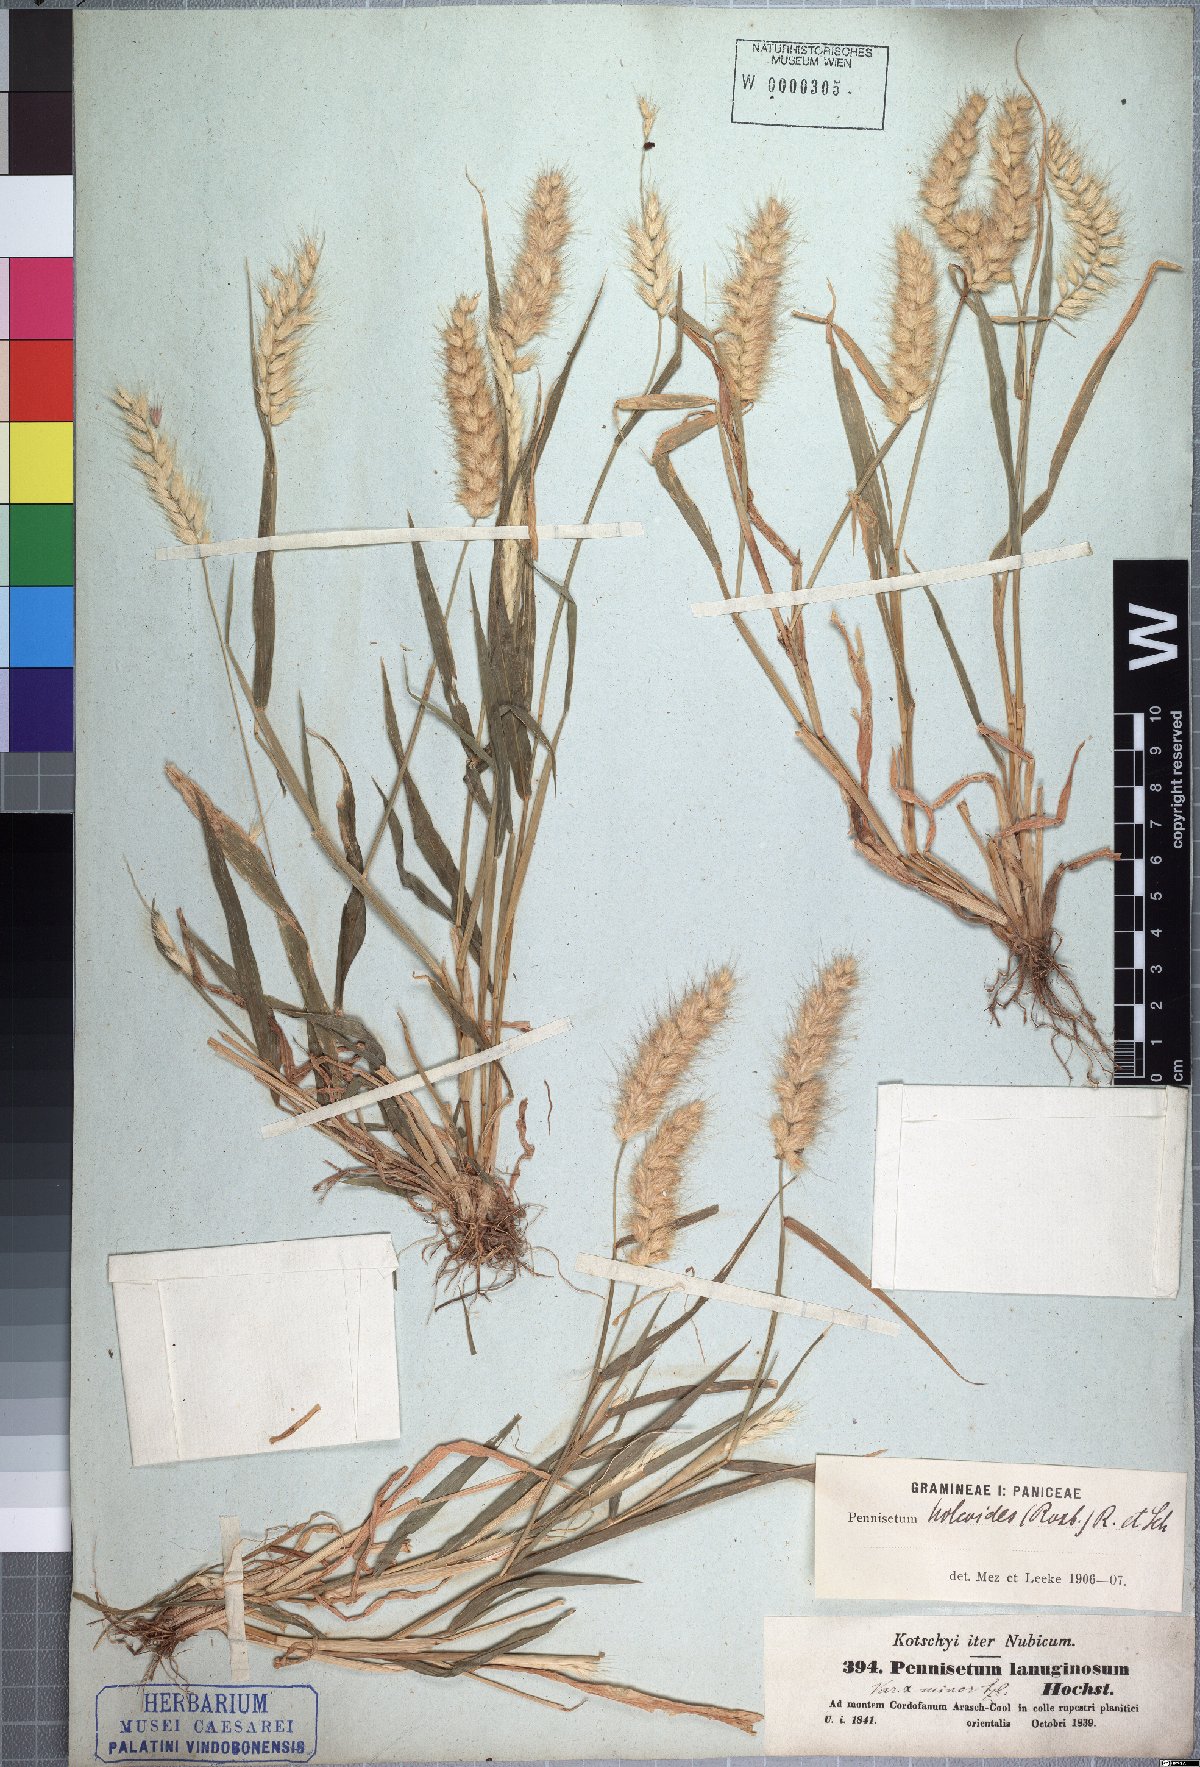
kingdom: Plantae
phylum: Tracheophyta
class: Liliopsida
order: Poales
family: Poaceae
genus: Cenchrus
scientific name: Cenchrus pedicellatus
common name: Hairy fountain grass
